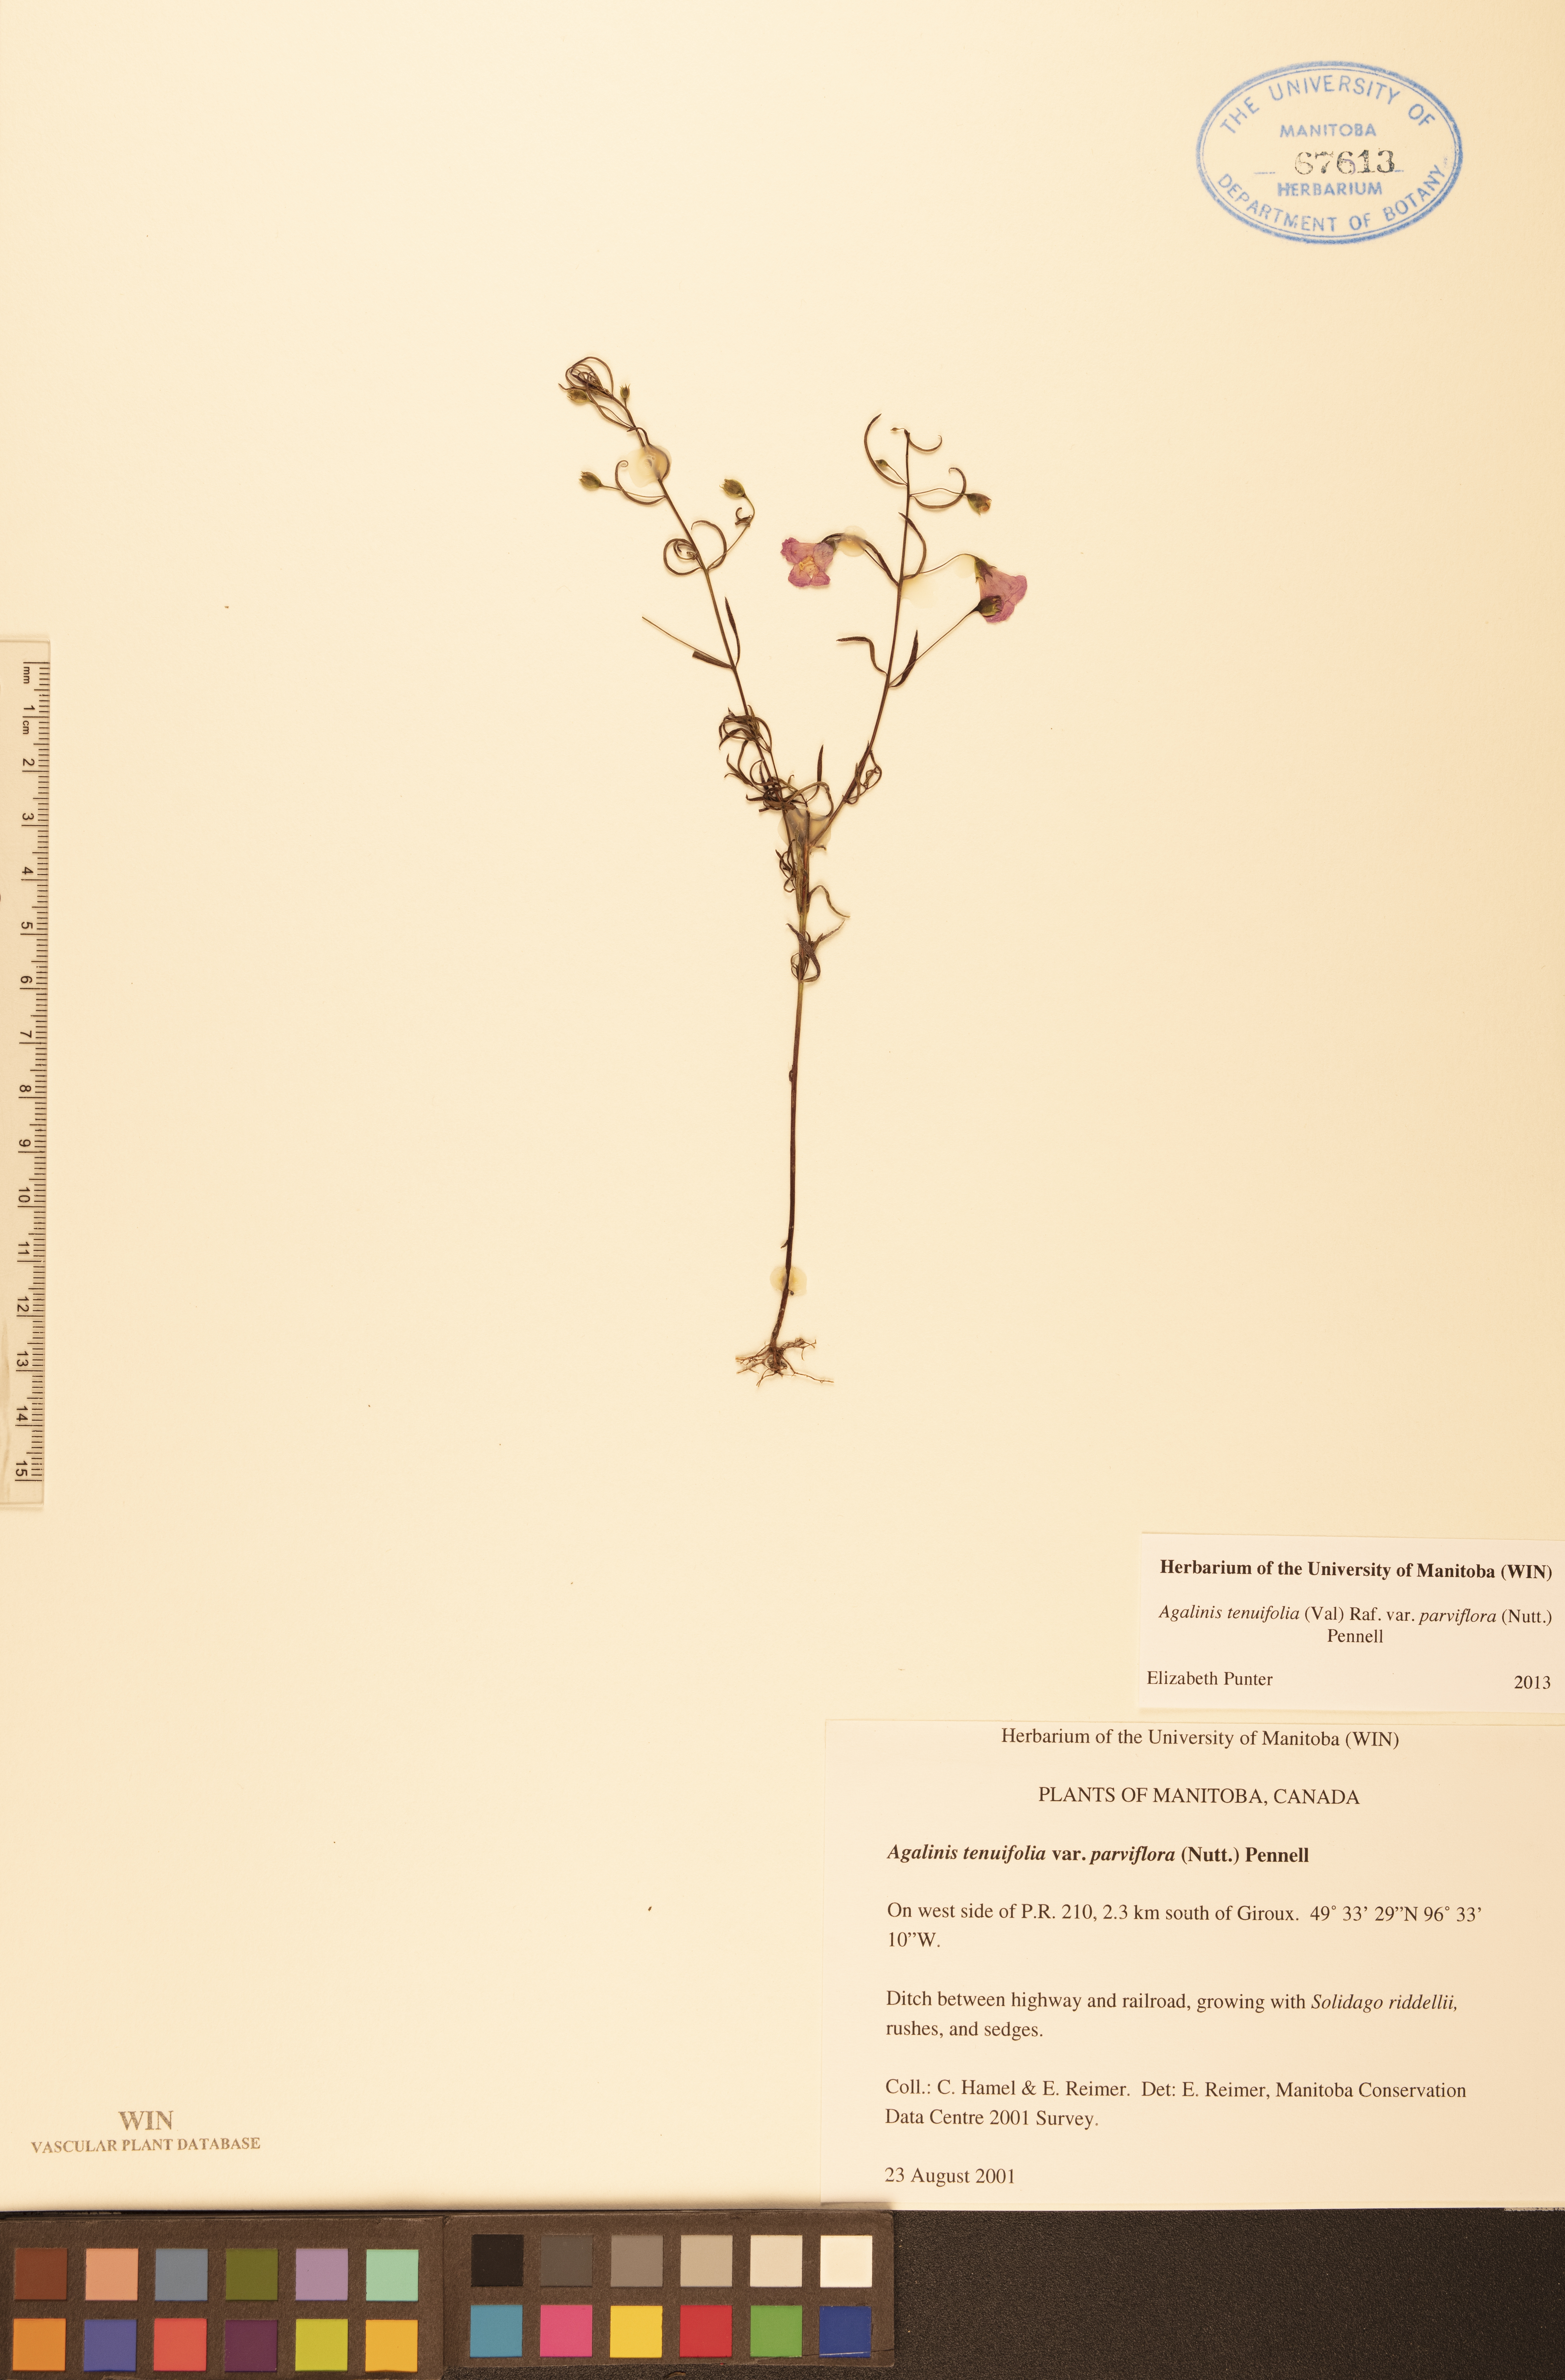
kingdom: Plantae
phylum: Tracheophyta
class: Magnoliopsida
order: Lamiales
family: Orobanchaceae
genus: Agalinis
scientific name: Agalinis tenuifolia
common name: Slender agalinis
